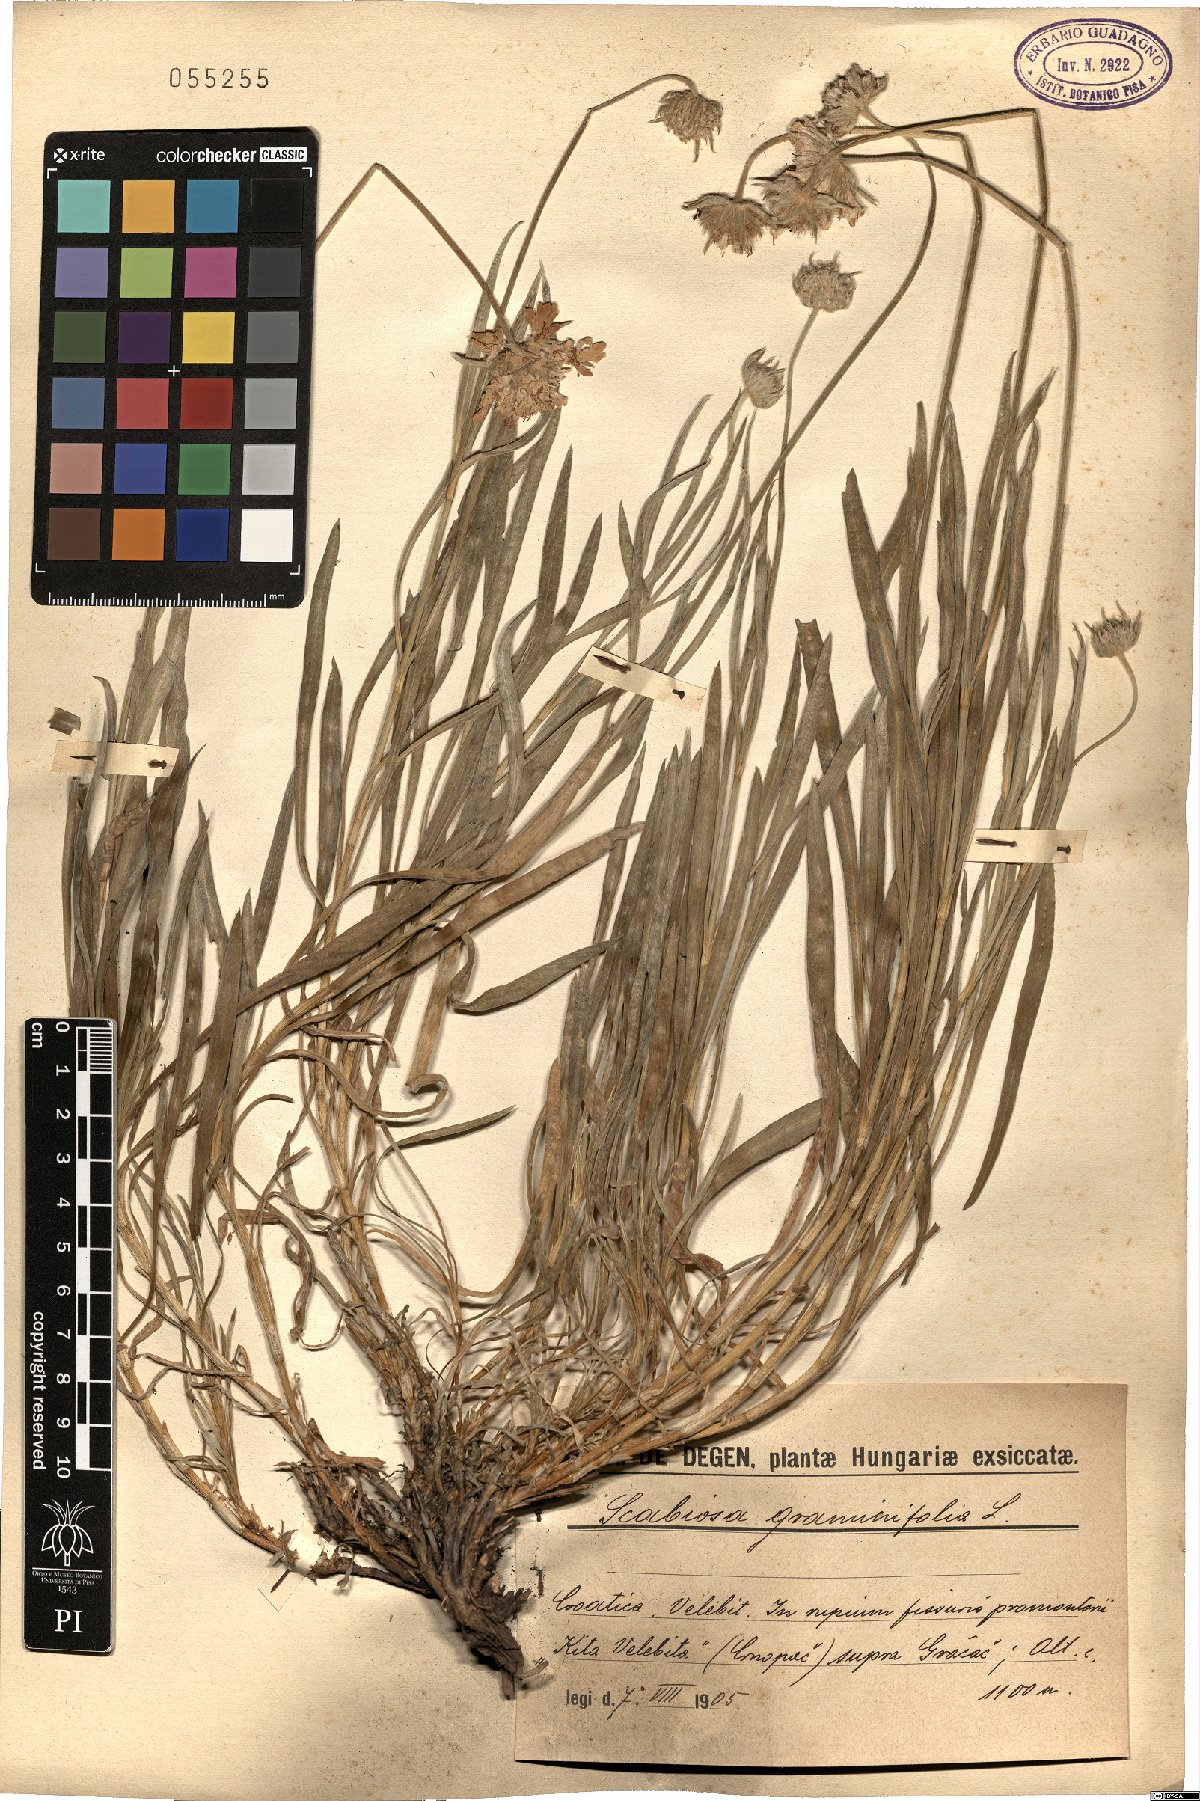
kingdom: Plantae
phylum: Tracheophyta
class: Magnoliopsida
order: Dipsacales
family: Caprifoliaceae
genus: Lomelosia
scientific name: Lomelosia graminifolia
